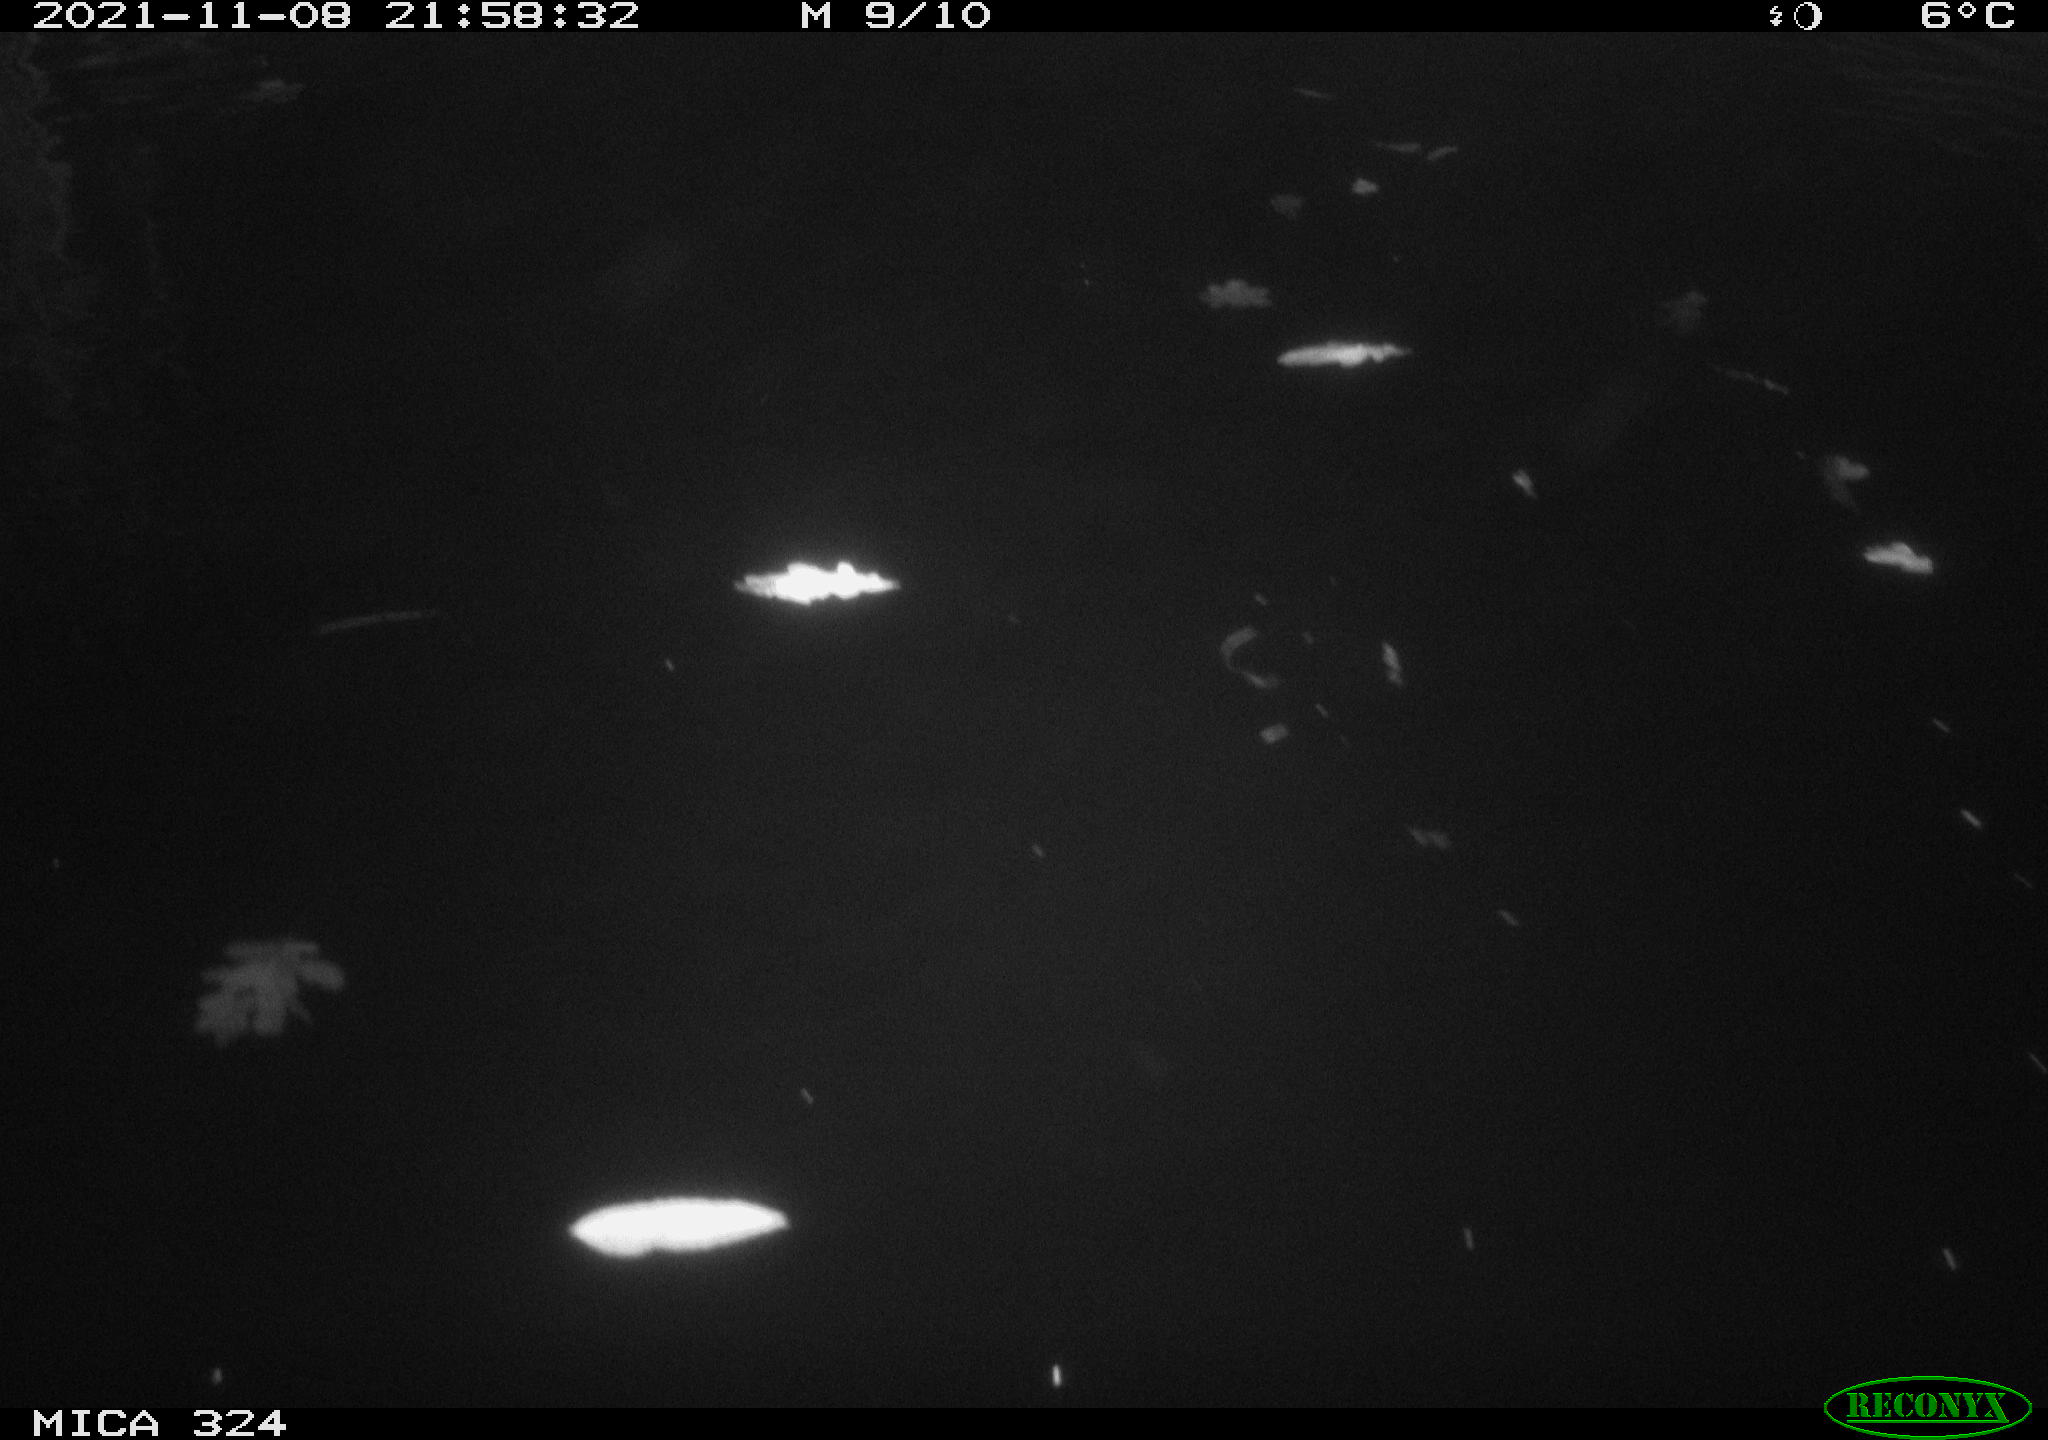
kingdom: Animalia
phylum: Chordata
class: Mammalia
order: Rodentia
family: Cricetidae
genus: Ondatra
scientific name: Ondatra zibethicus
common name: Muskrat
